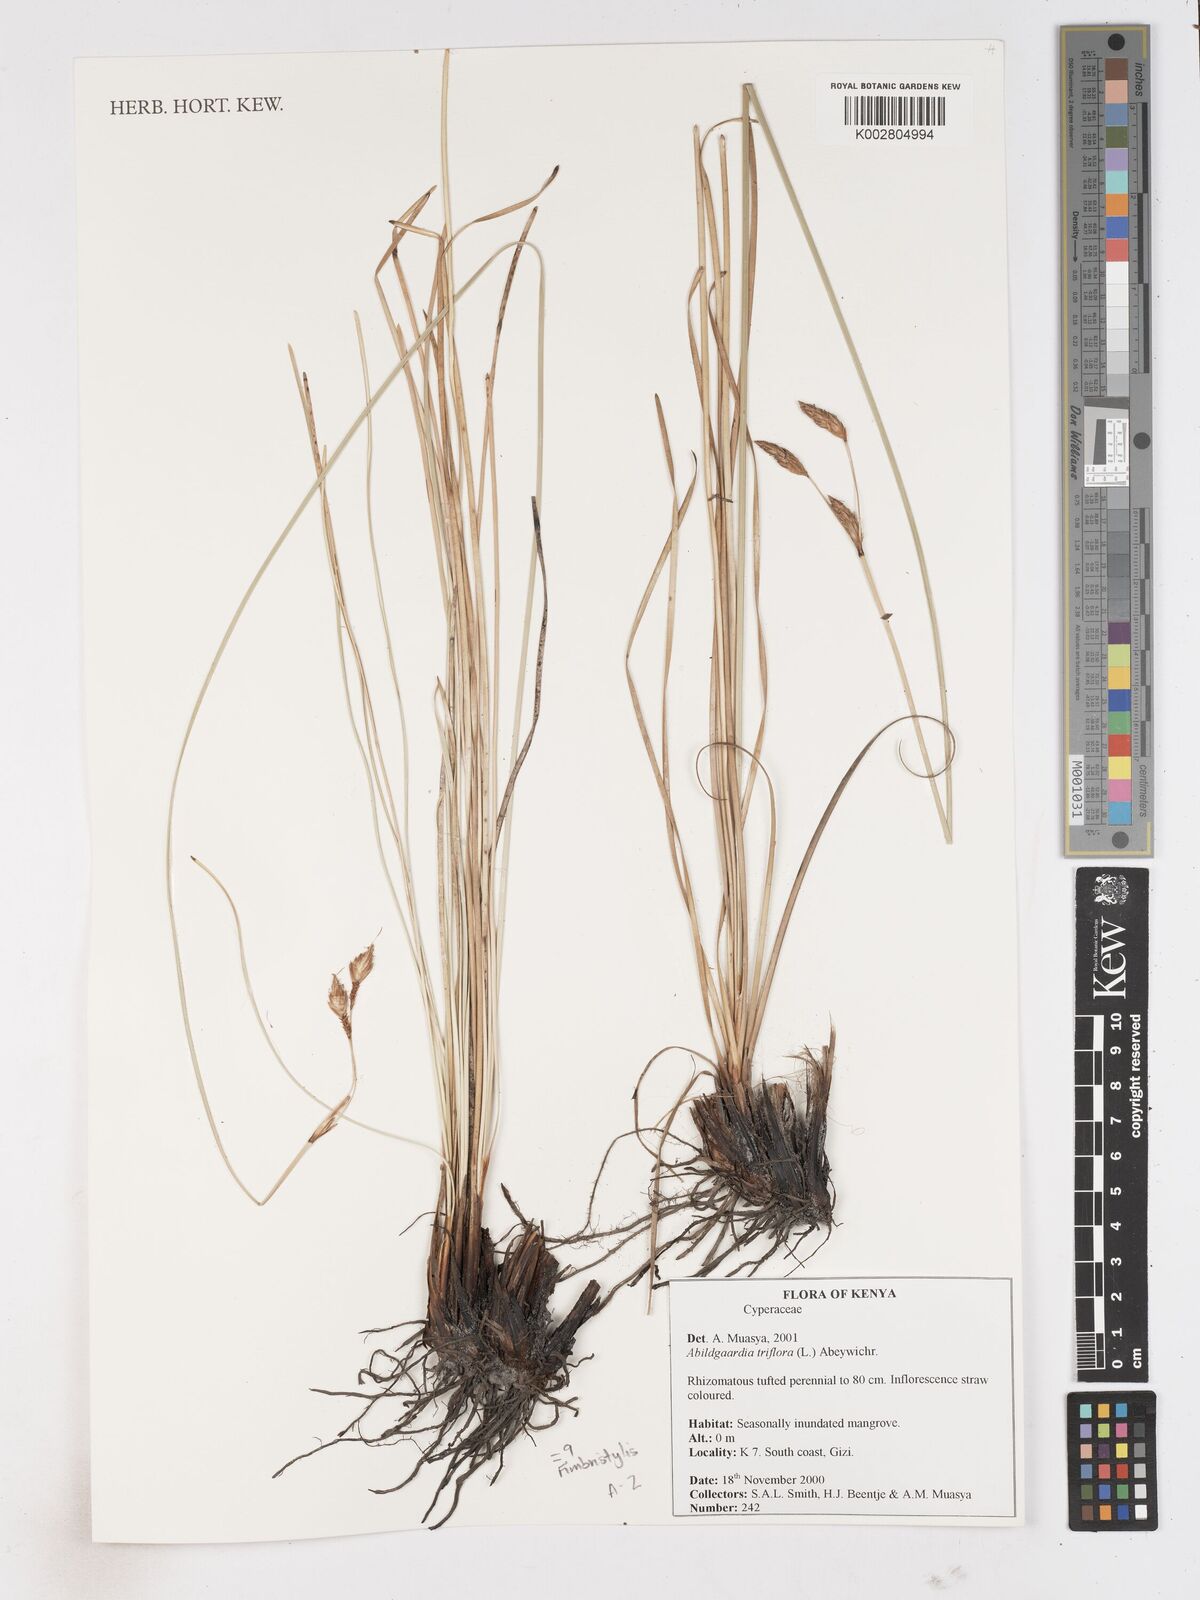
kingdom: Plantae
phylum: Tracheophyta
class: Liliopsida
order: Poales
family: Cyperaceae
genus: Abildgaardia
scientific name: Abildgaardia triflora
